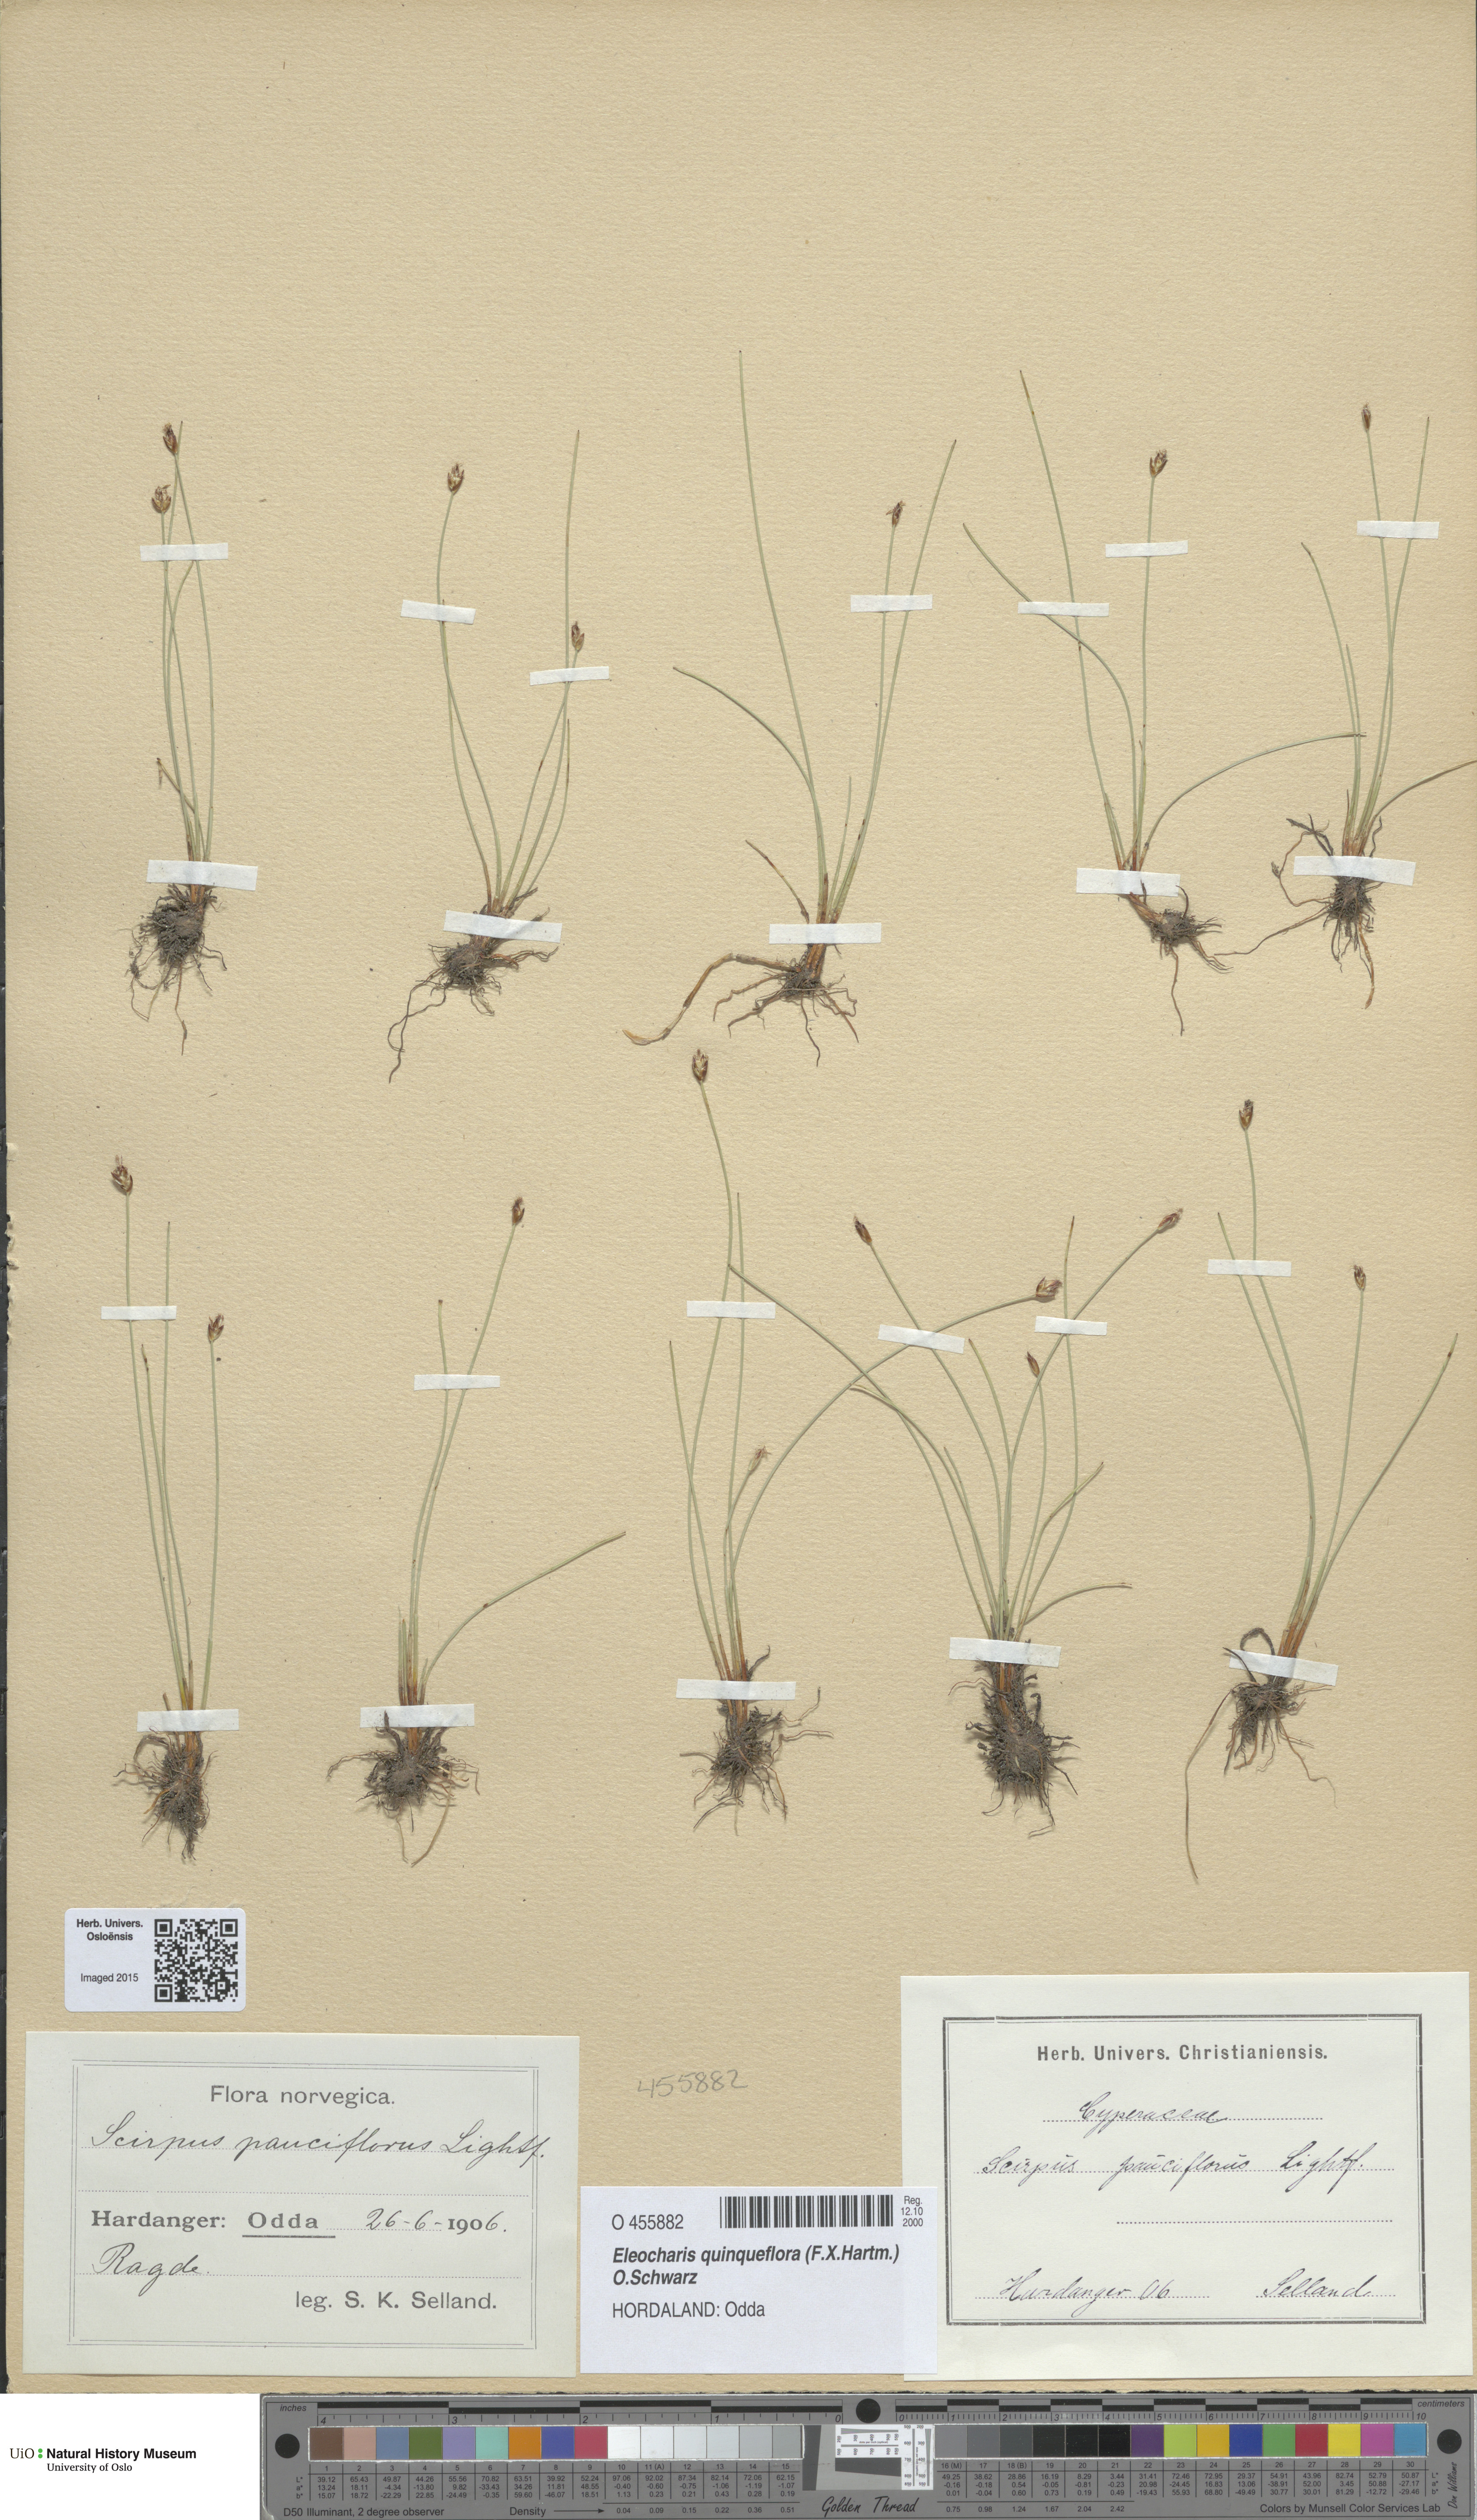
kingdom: Plantae
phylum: Tracheophyta
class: Liliopsida
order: Poales
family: Cyperaceae
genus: Eleocharis
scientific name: Eleocharis quinqueflora
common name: Few-flowered spike-rush
